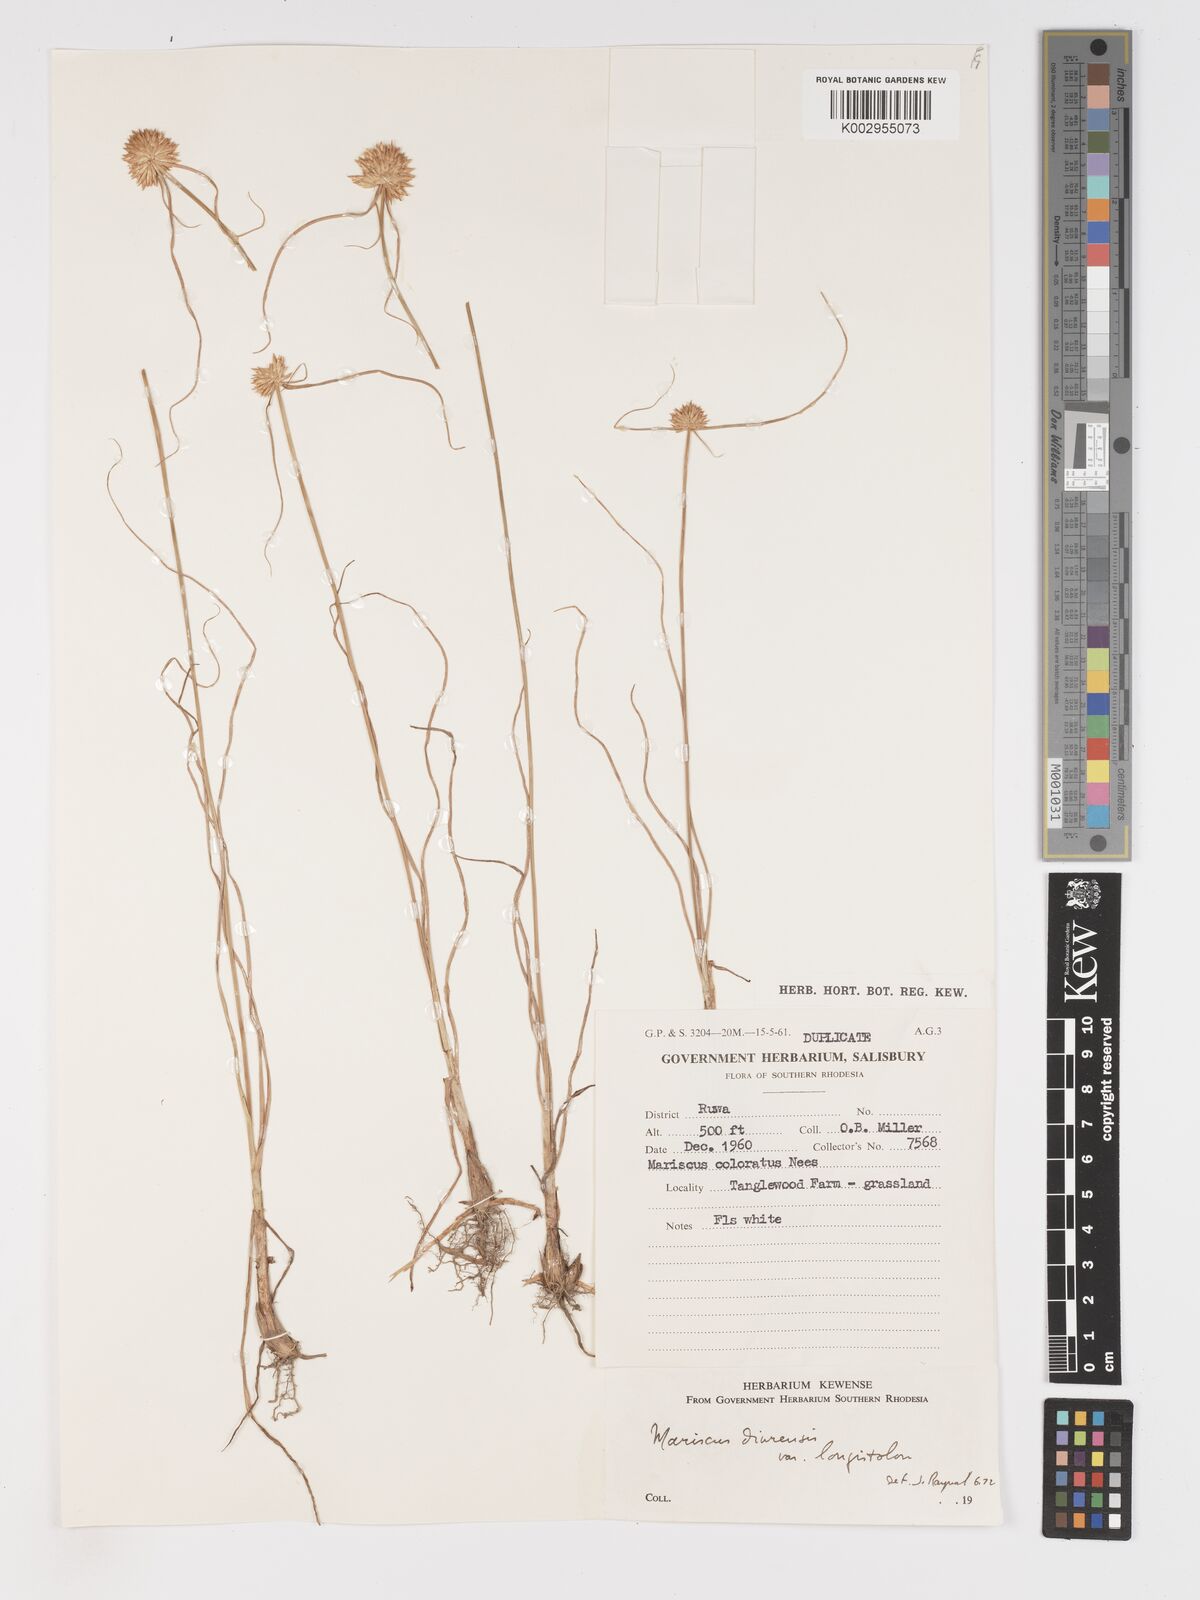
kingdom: Plantae
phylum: Tracheophyta
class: Liliopsida
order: Poales
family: Cyperaceae
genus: Cyperus
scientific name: Cyperus diurensis
